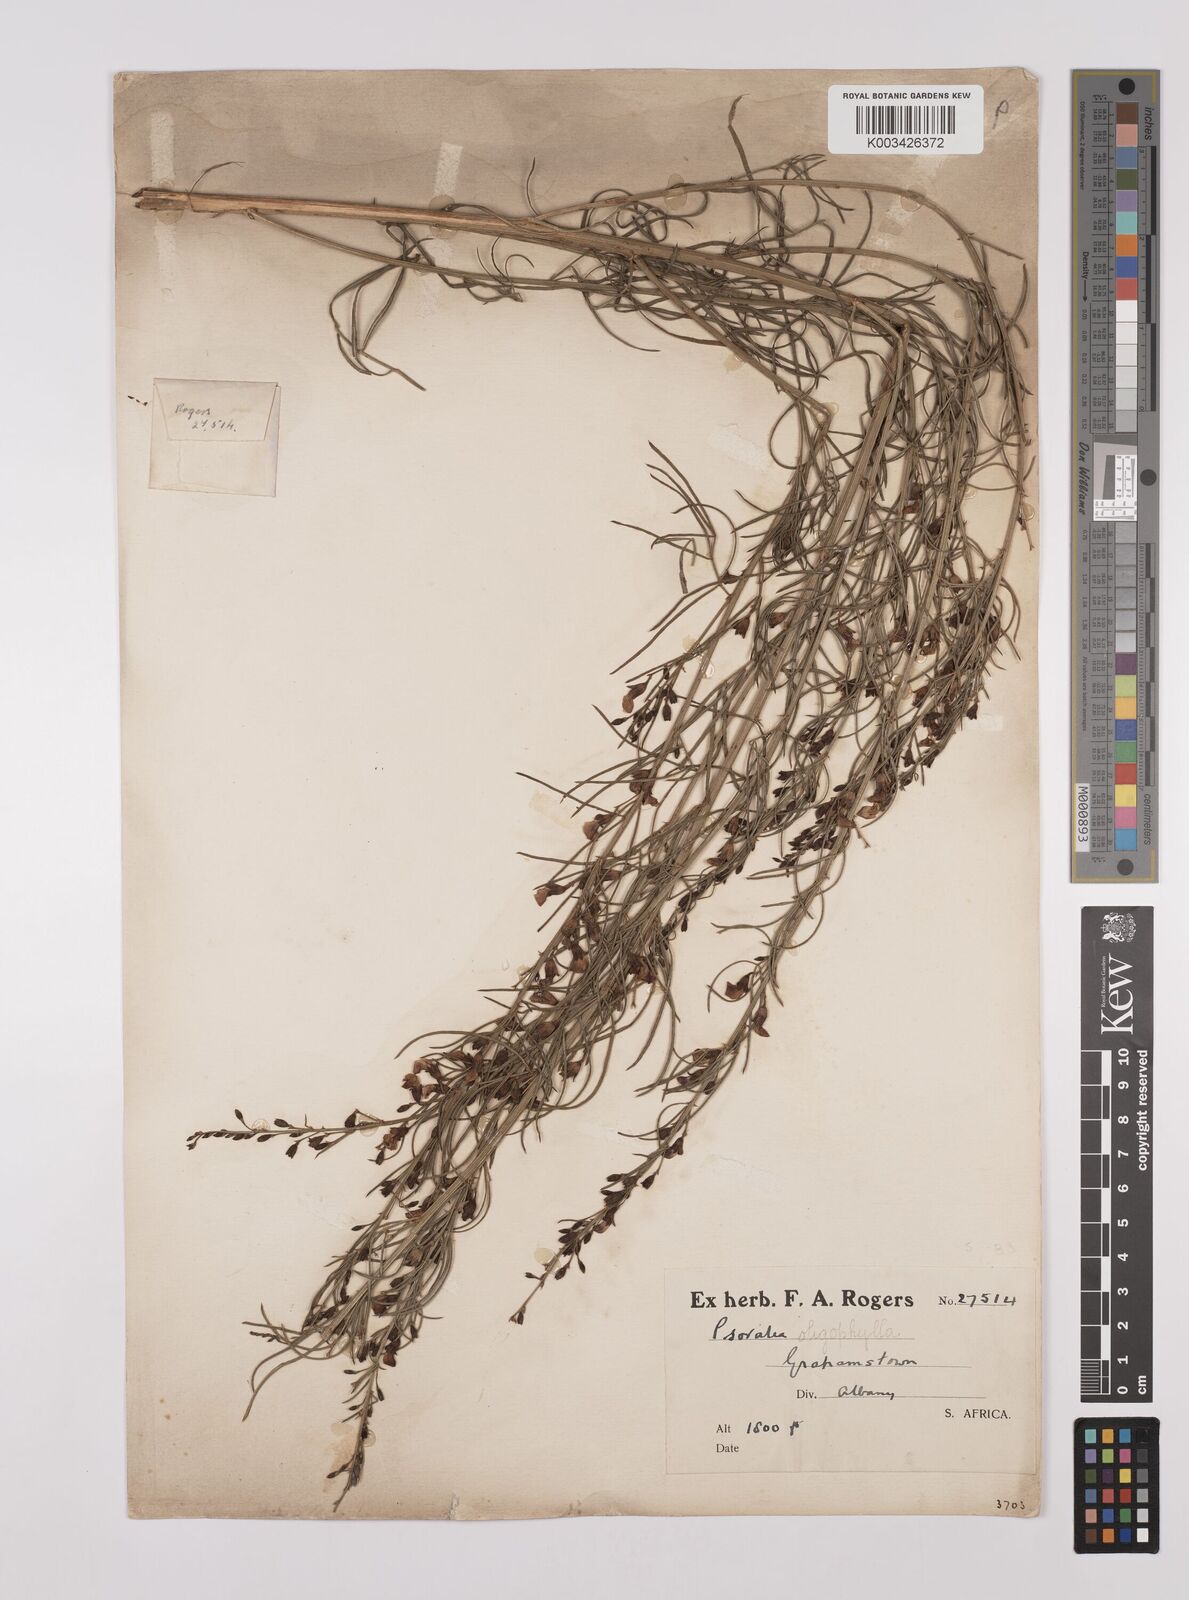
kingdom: Plantae
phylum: Tracheophyta
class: Magnoliopsida
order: Fabales
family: Fabaceae
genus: Psoralea
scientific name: Psoralea rhizotoma
